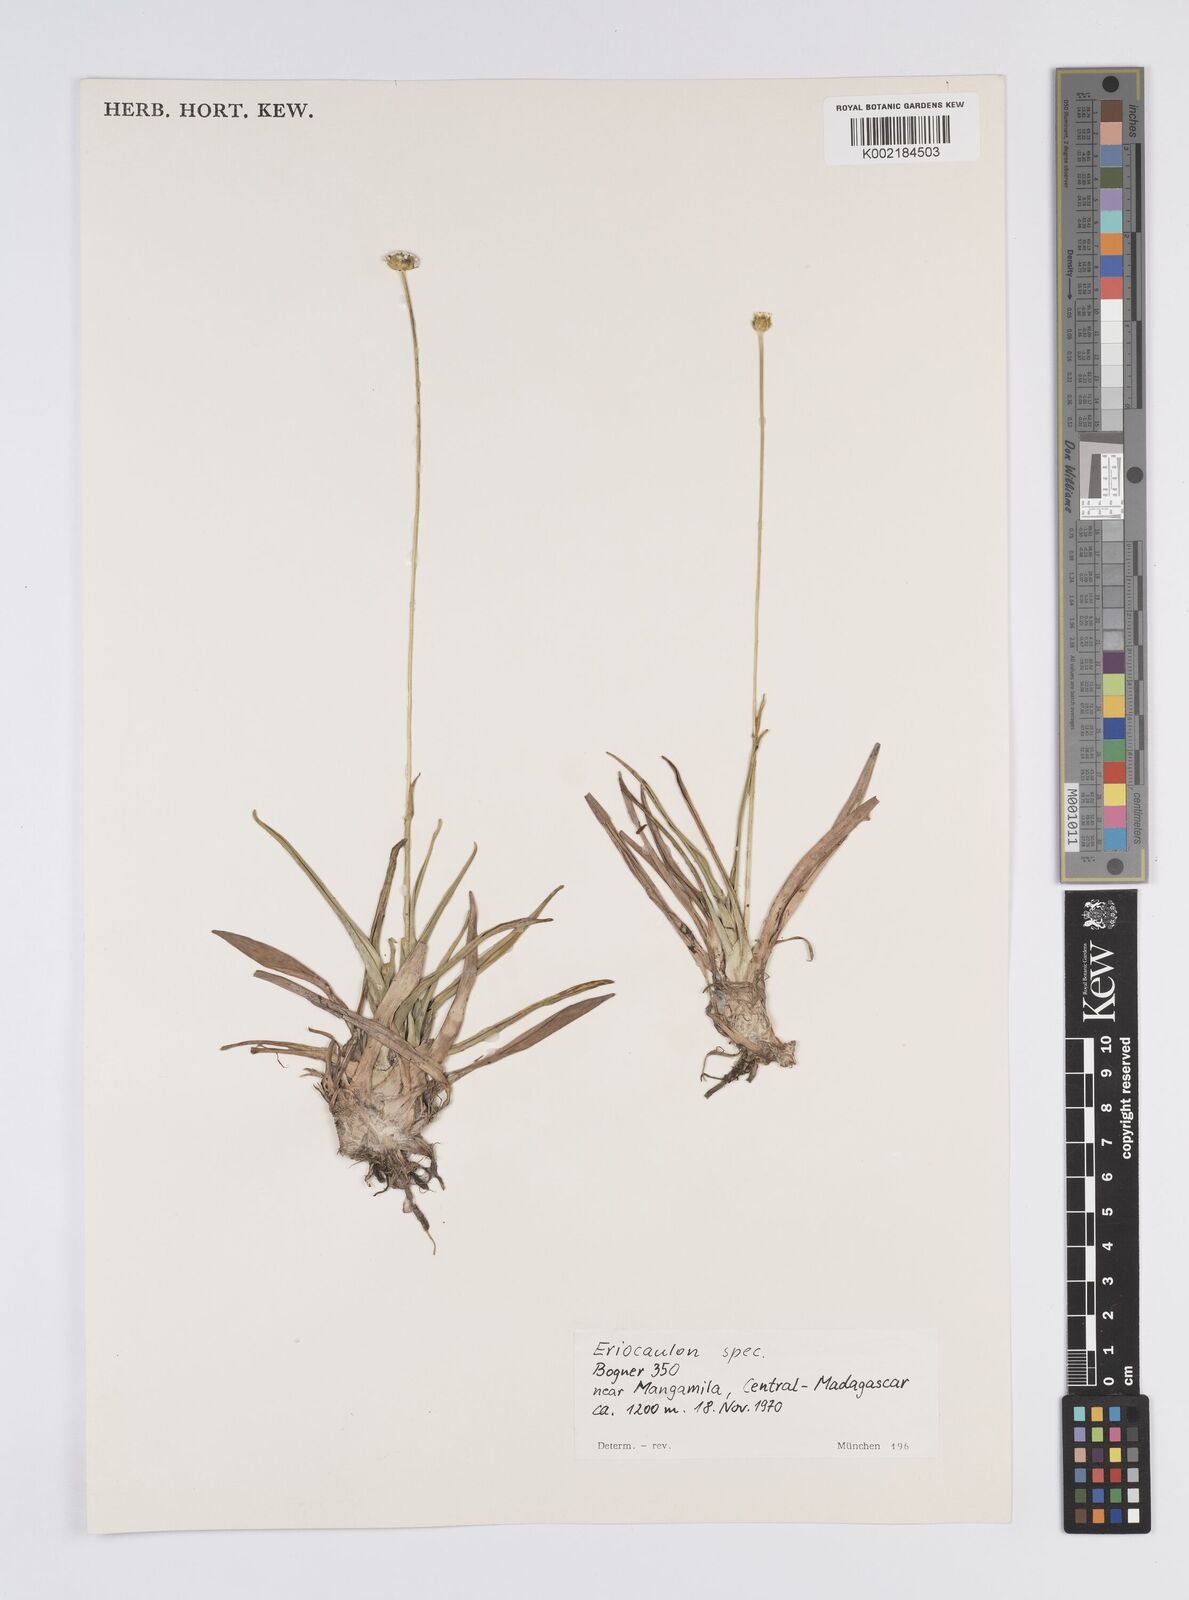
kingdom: Plantae
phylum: Tracheophyta
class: Liliopsida
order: Poales
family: Eriocaulaceae
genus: Eriocaulon
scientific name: Eriocaulon
